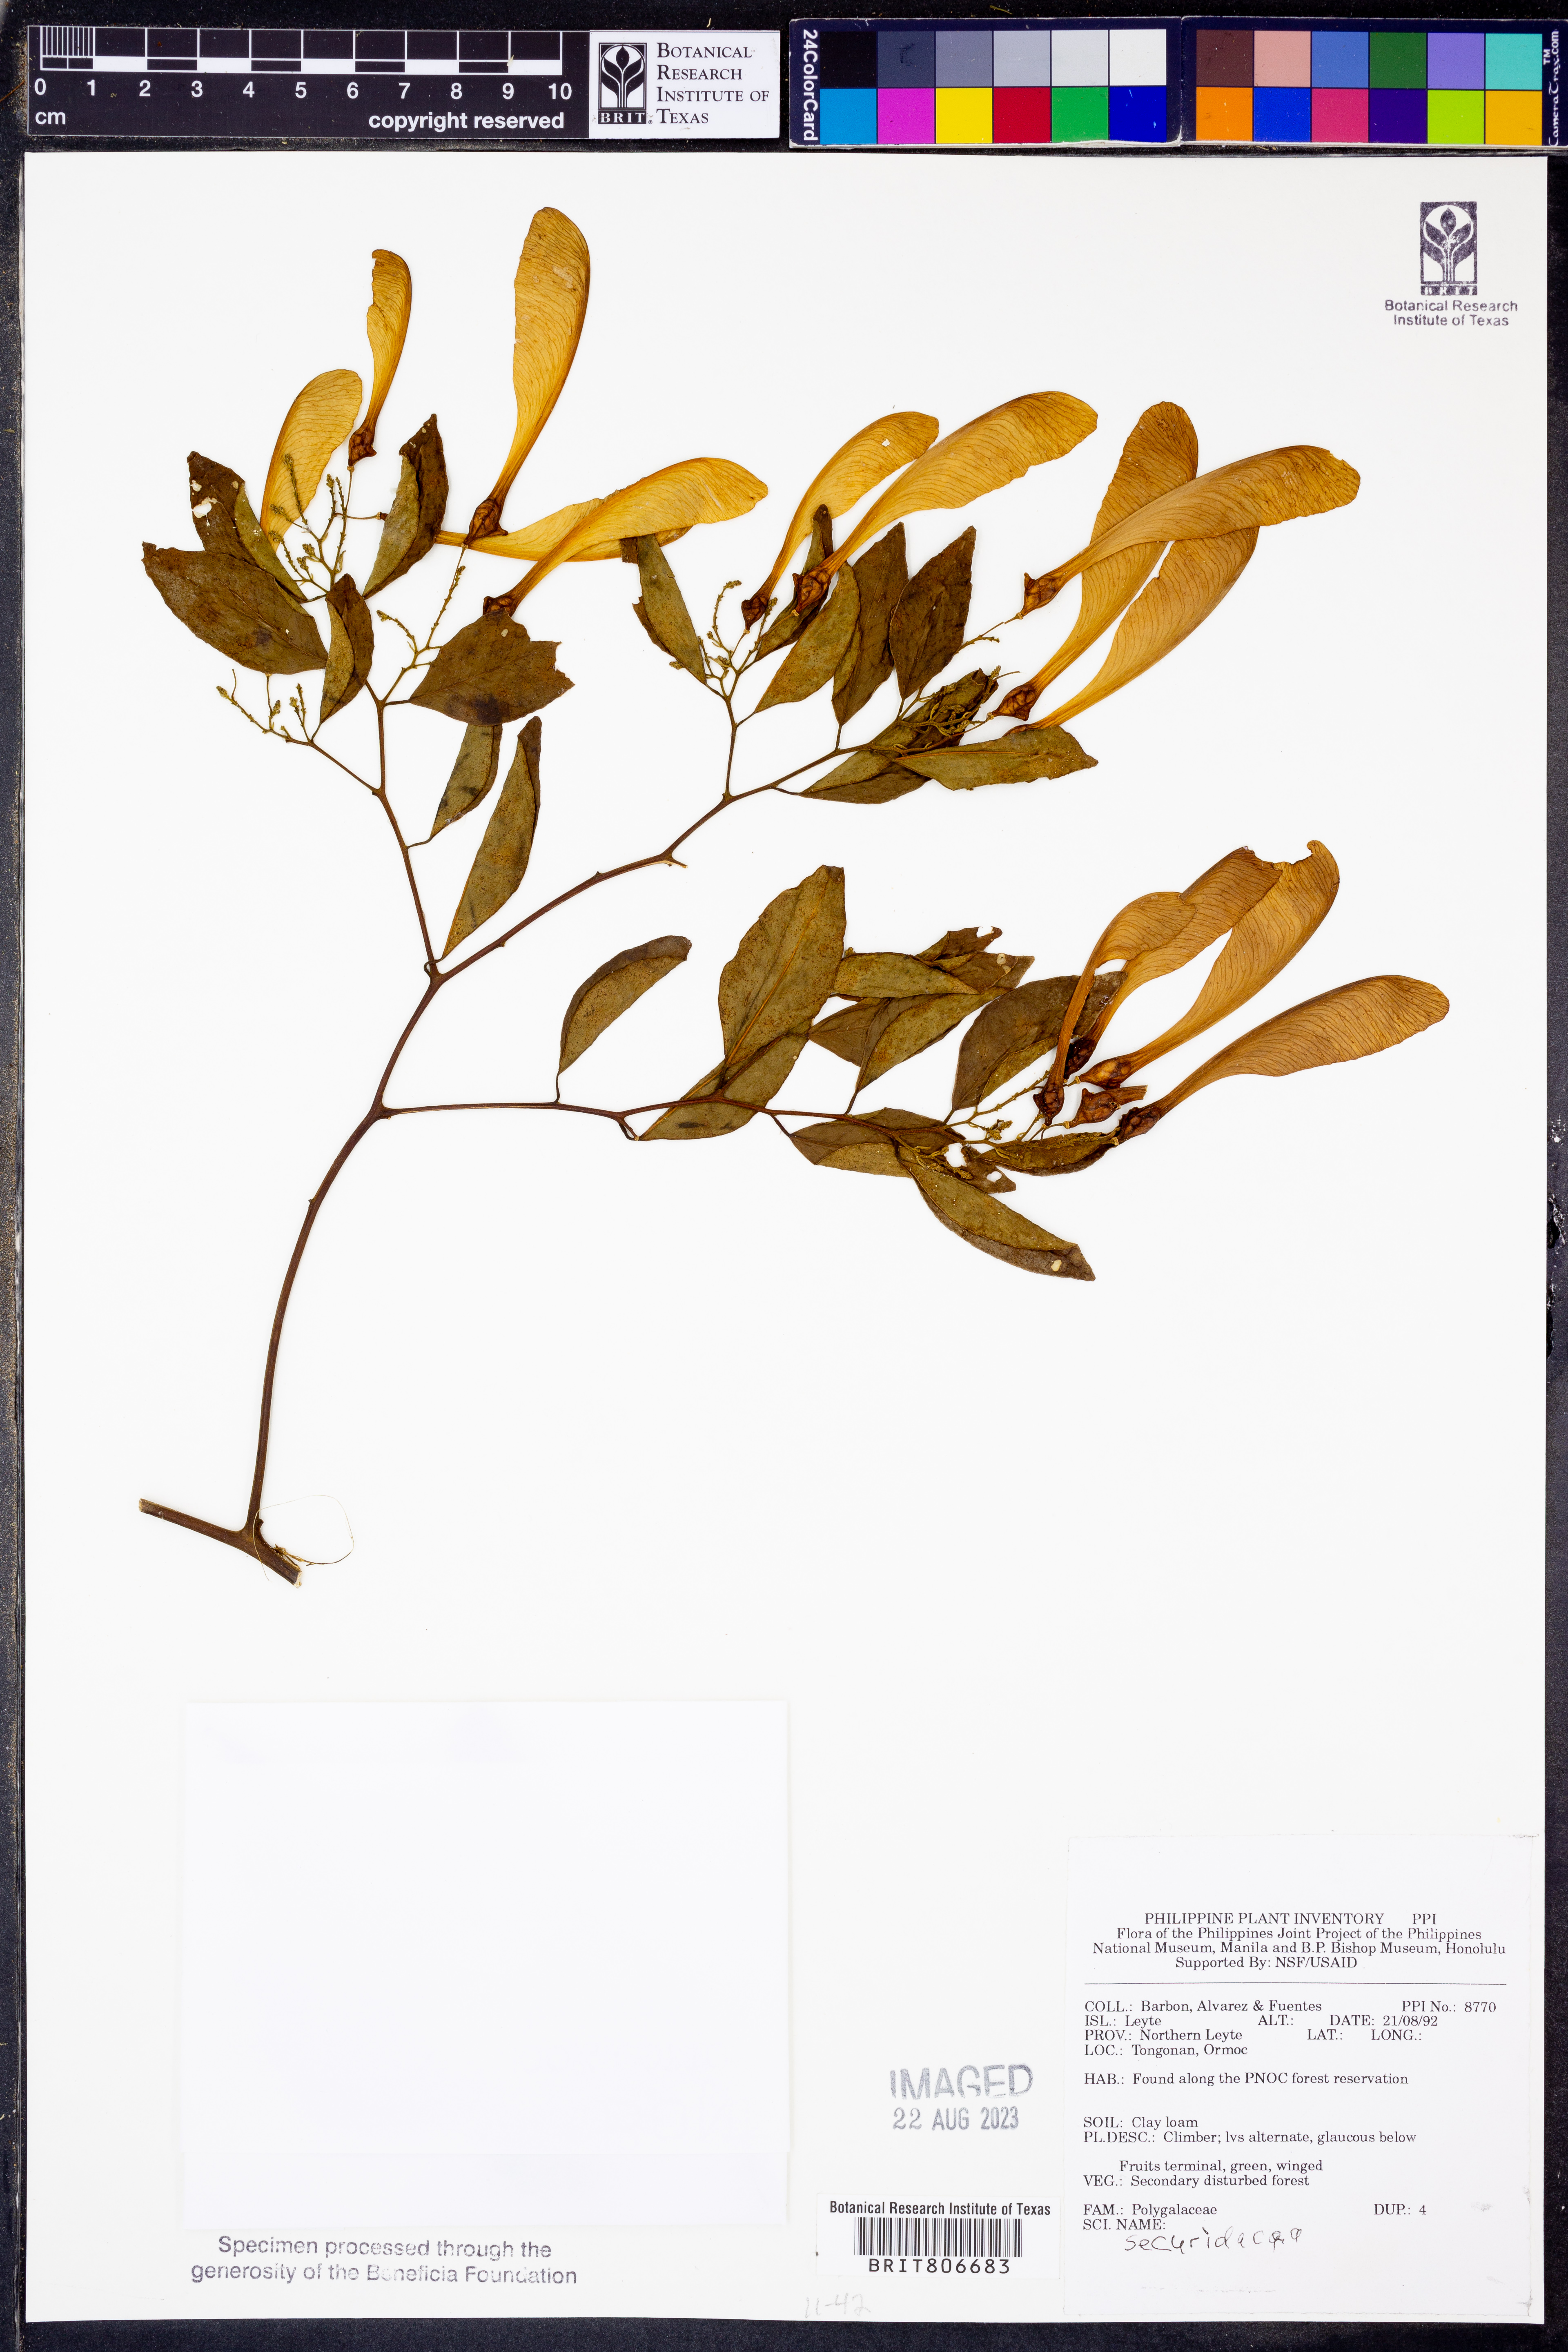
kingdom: Plantae
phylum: Tracheophyta
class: Magnoliopsida
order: Fabales
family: Polygalaceae
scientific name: Polygalaceae
